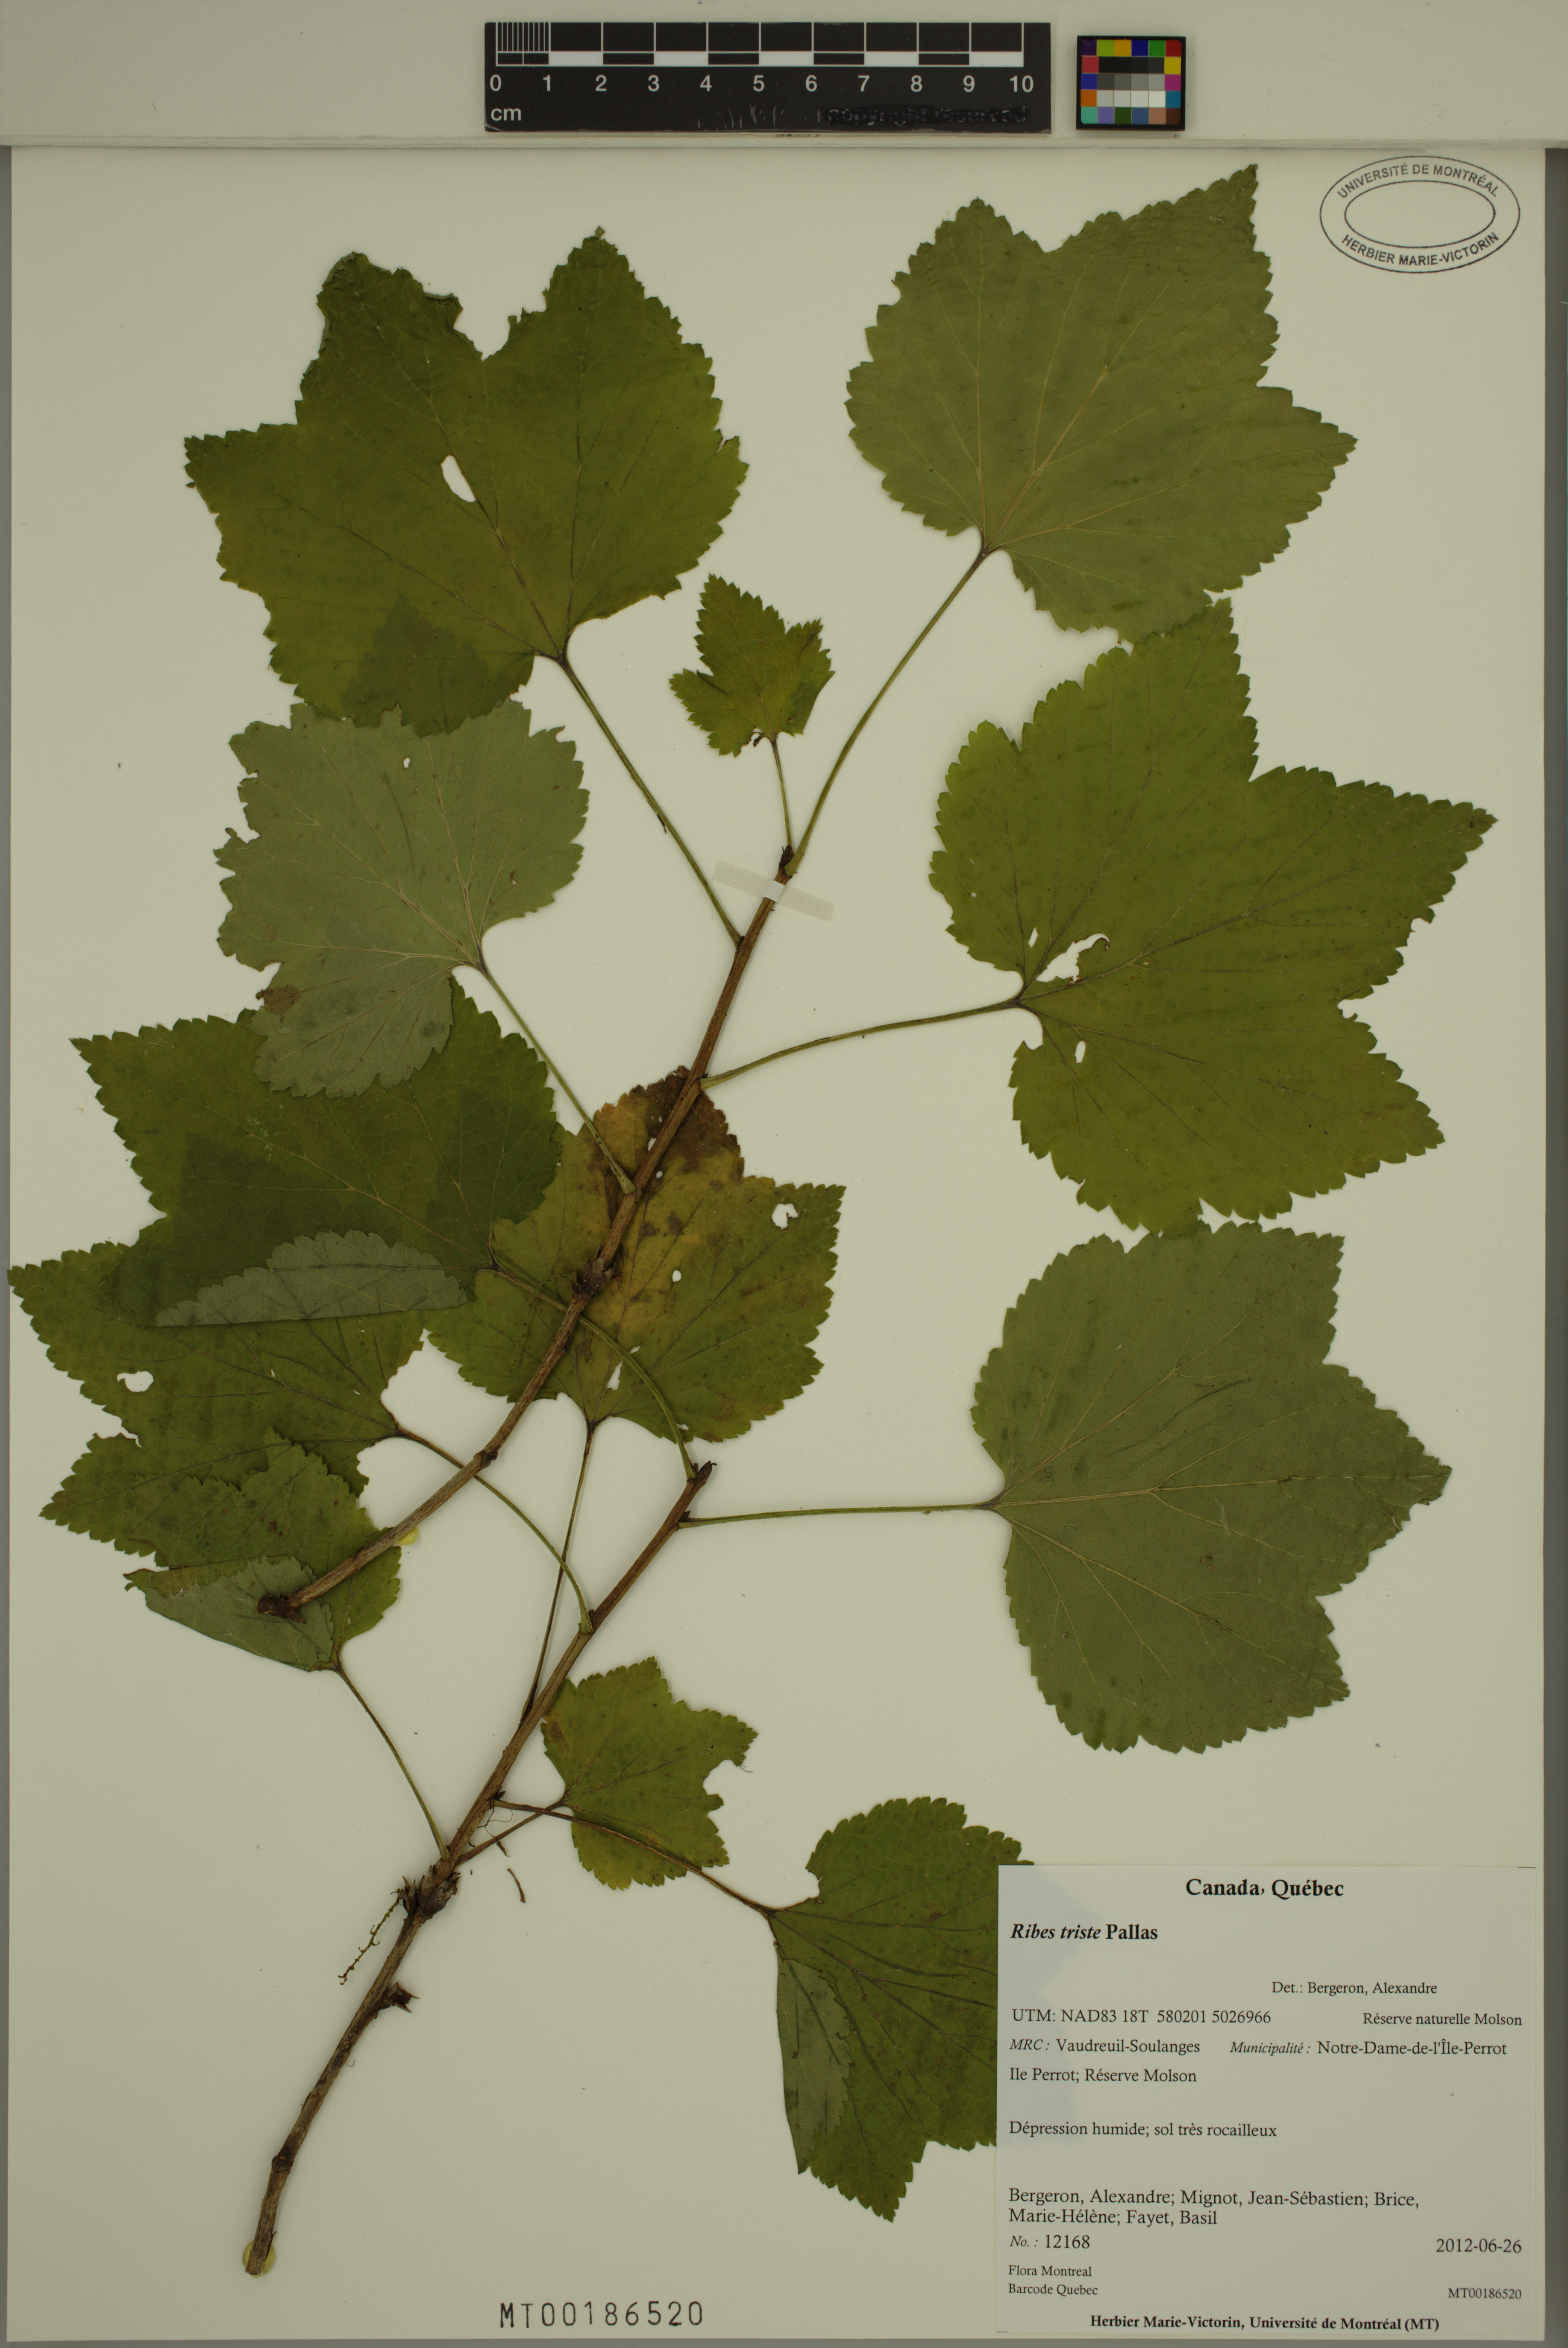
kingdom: Plantae
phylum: Tracheophyta
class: Magnoliopsida
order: Saxifragales
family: Grossulariaceae
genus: Ribes
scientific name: Ribes triste
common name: Swamp red currant
